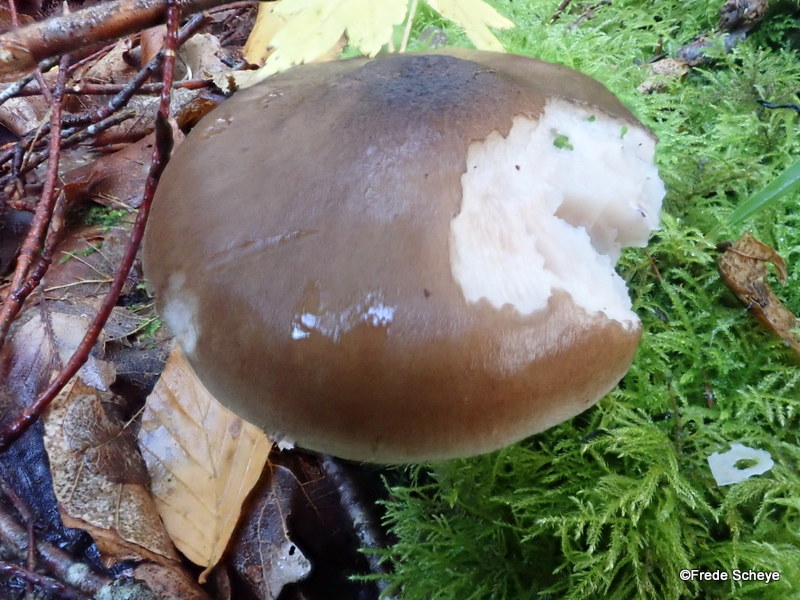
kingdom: Fungi
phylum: Basidiomycota
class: Agaricomycetes
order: Agaricales
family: Pluteaceae
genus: Pluteus
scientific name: Pluteus cervinus
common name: sodfarvet skærmhat
